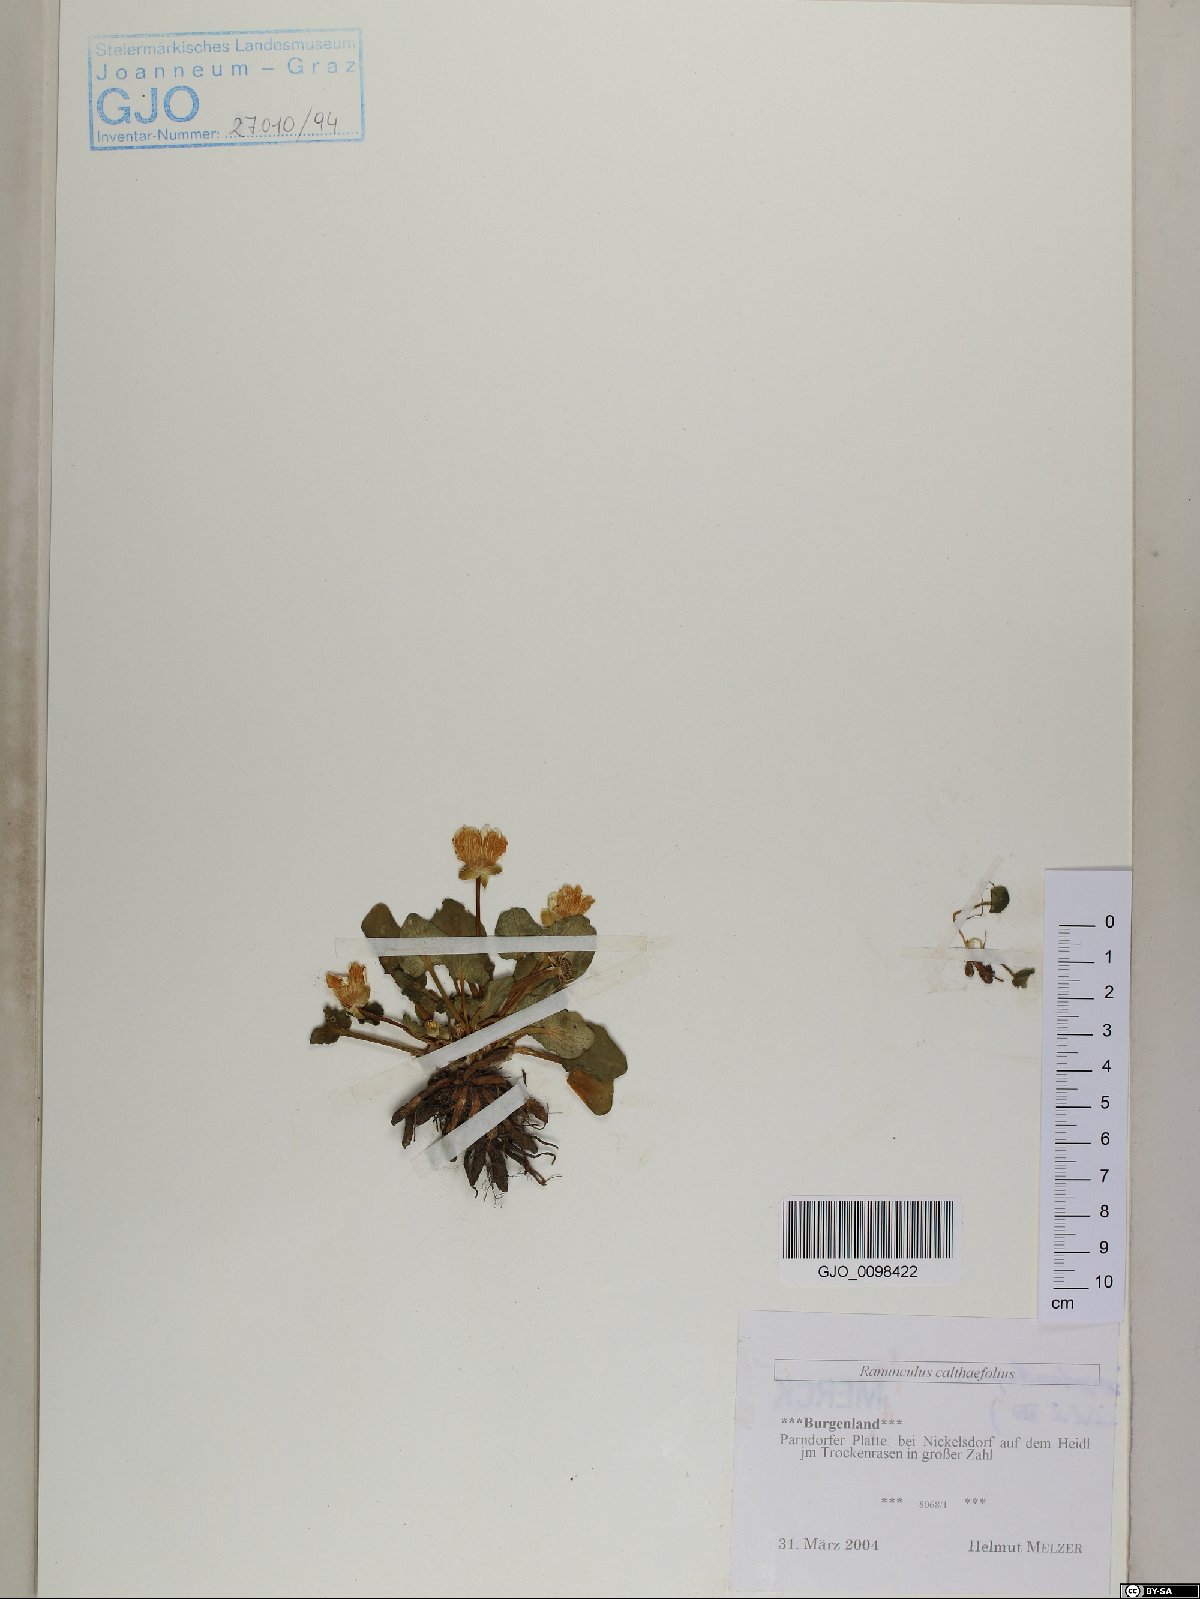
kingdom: Plantae
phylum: Tracheophyta
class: Magnoliopsida
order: Ranunculales
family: Ranunculaceae
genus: Ficaria
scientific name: Ficaria calthifolia
